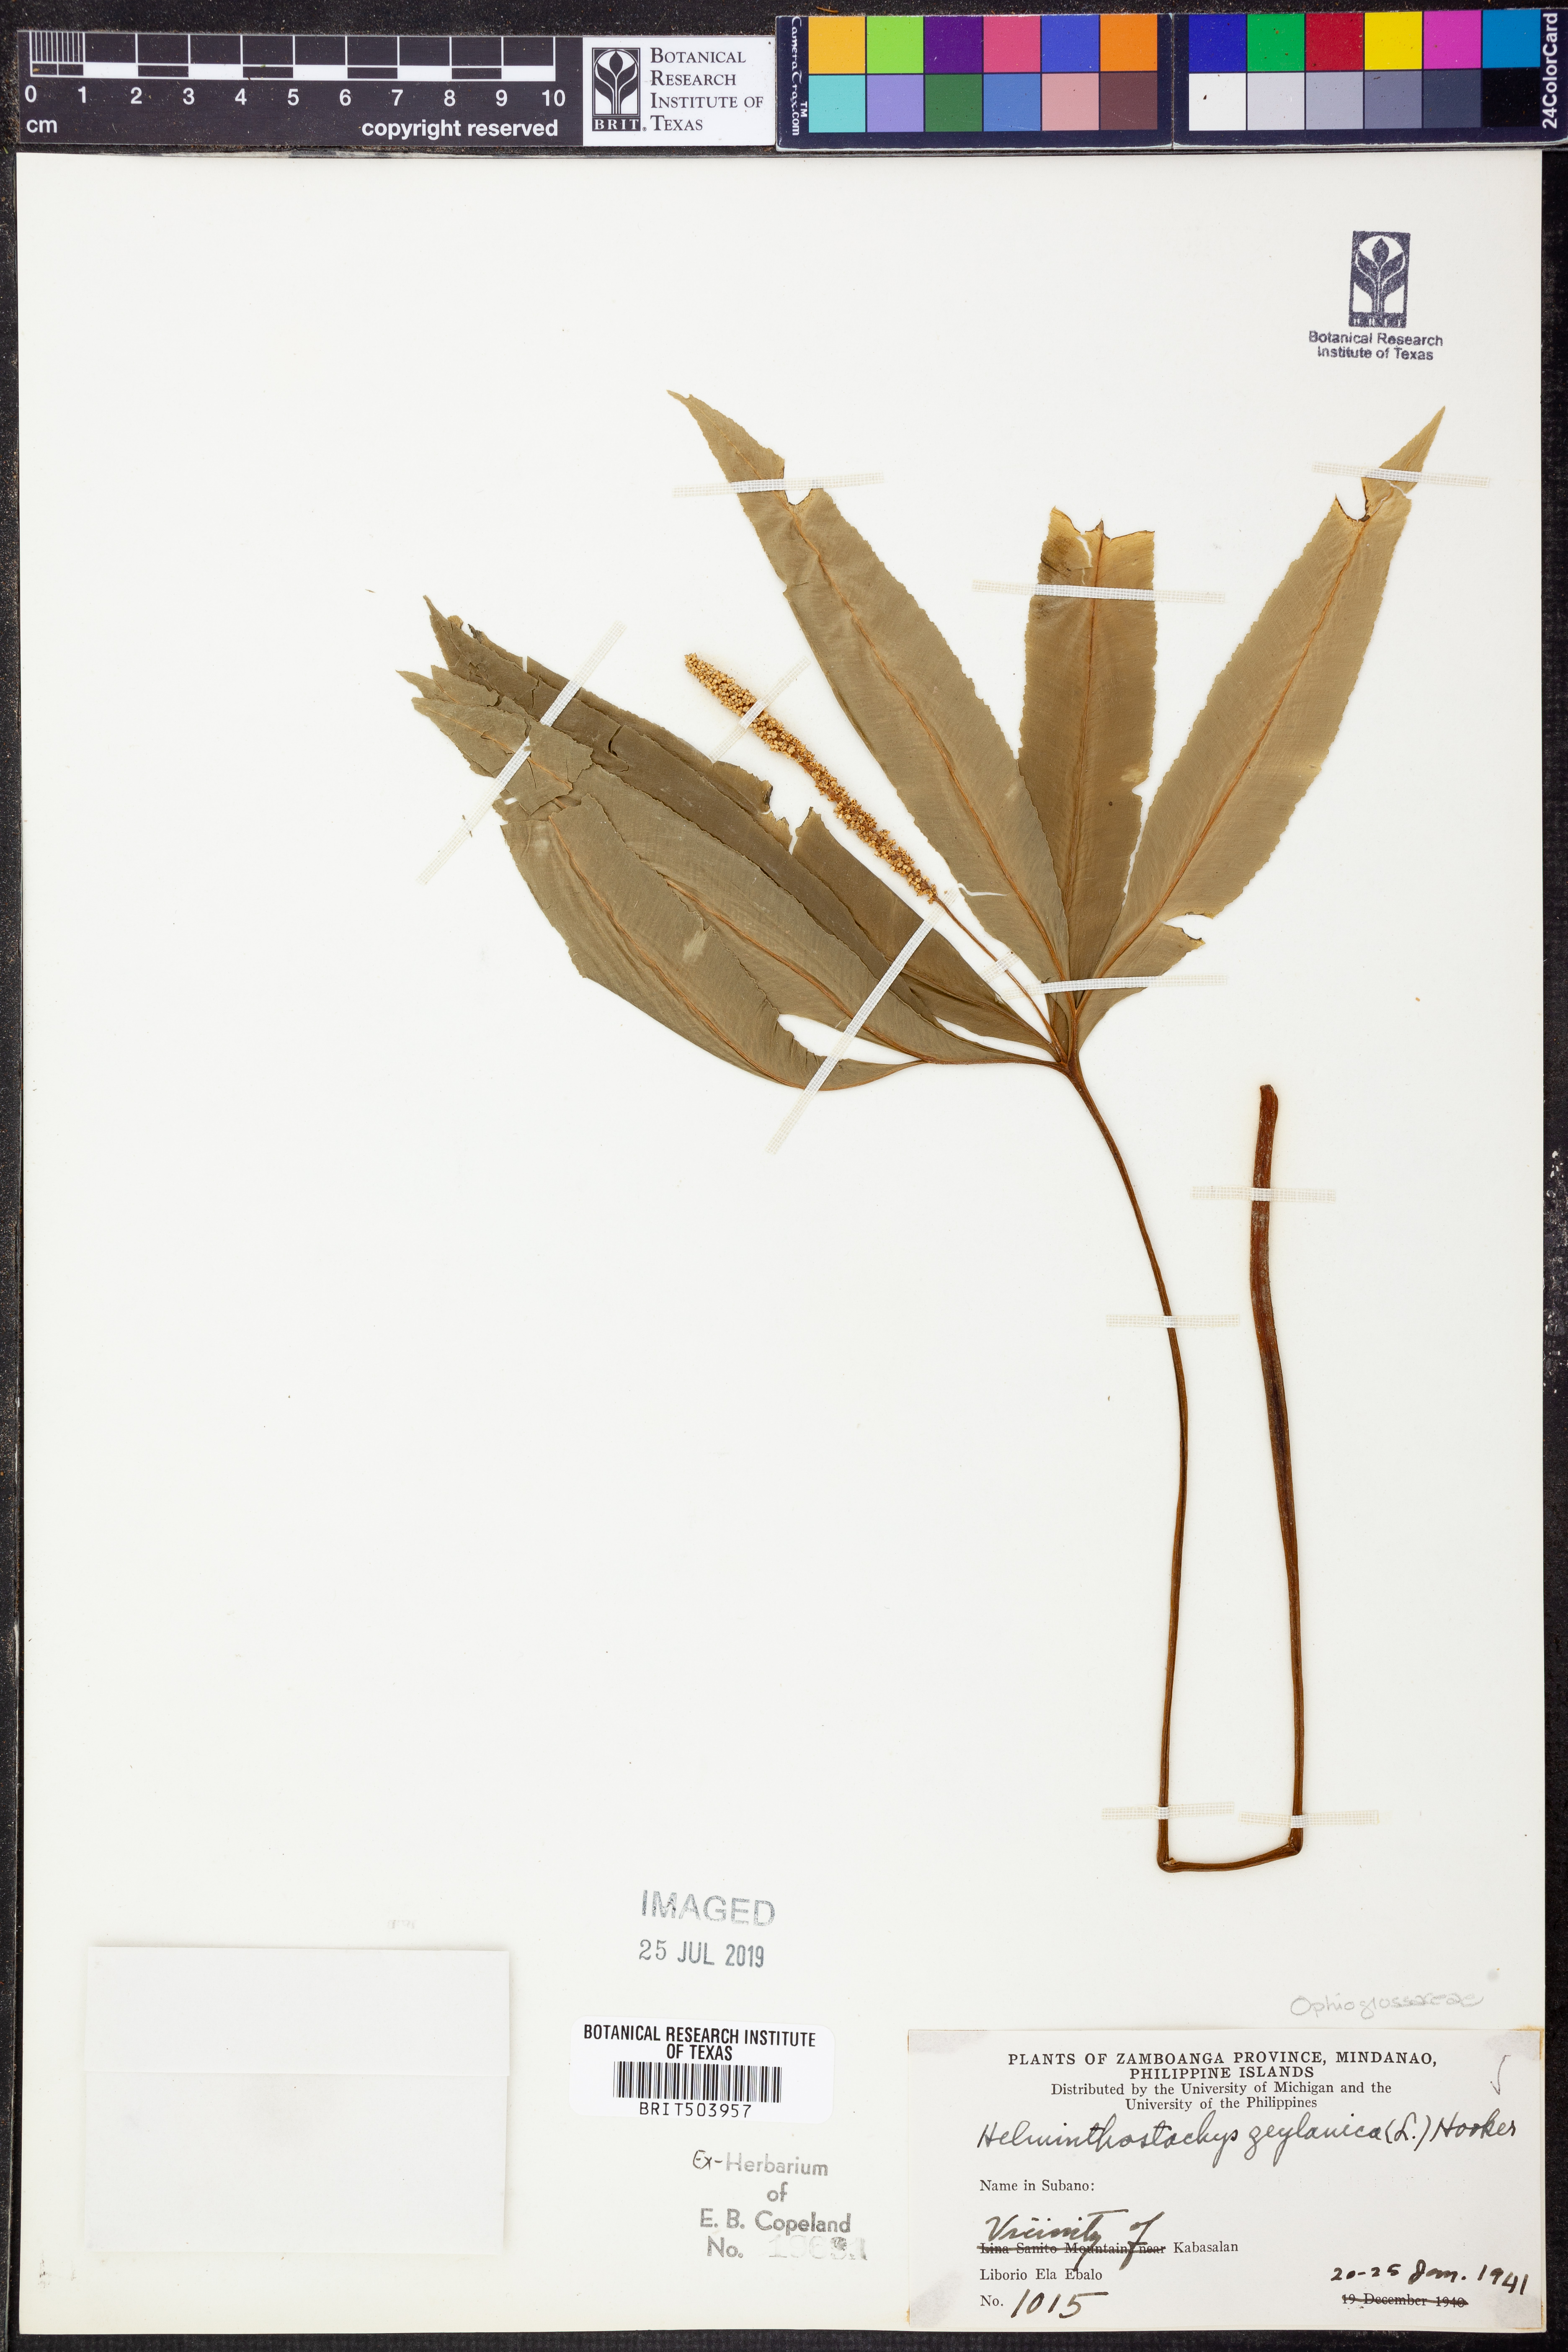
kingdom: Plantae
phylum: Tracheophyta
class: Polypodiopsida
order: Ophioglossales
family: Ophioglossaceae
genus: Helminthostachys
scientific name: Helminthostachys zeylanica
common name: Flowering fern
